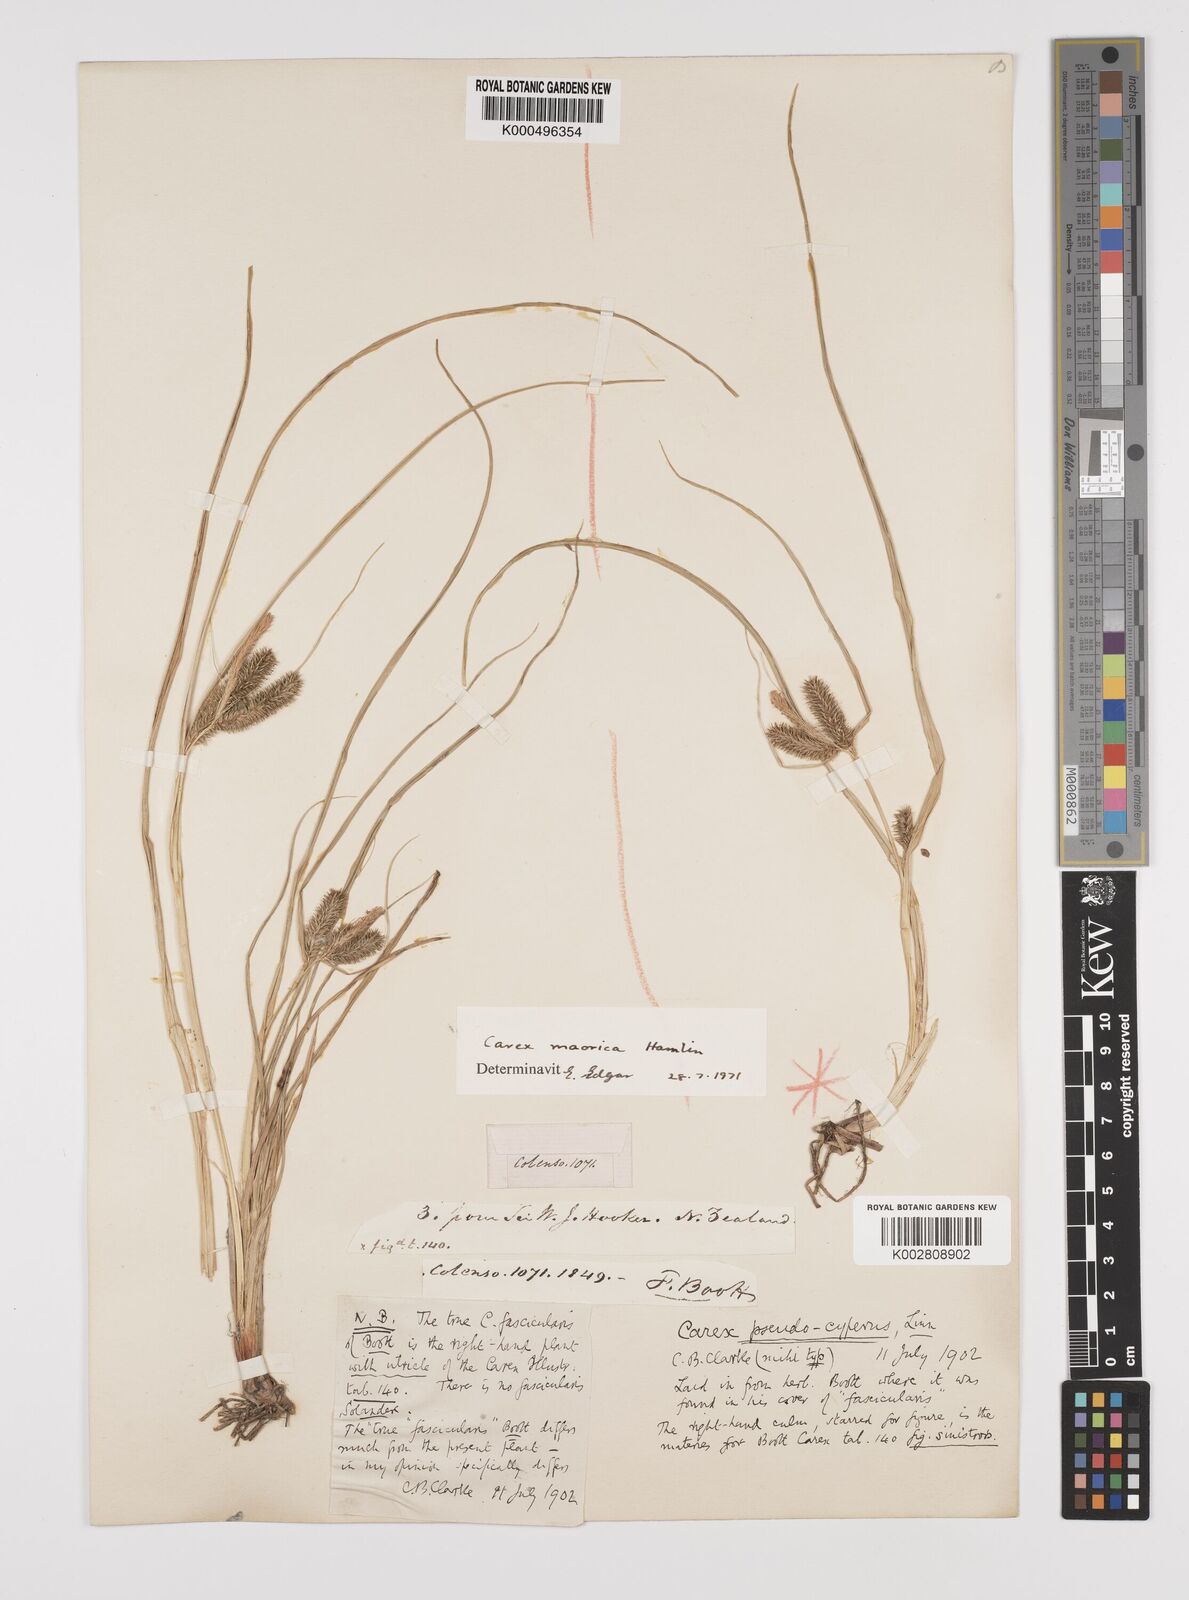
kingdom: Plantae
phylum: Tracheophyta
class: Liliopsida
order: Poales
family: Cyperaceae
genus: Carex
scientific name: Carex maorica
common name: Maori sedge
